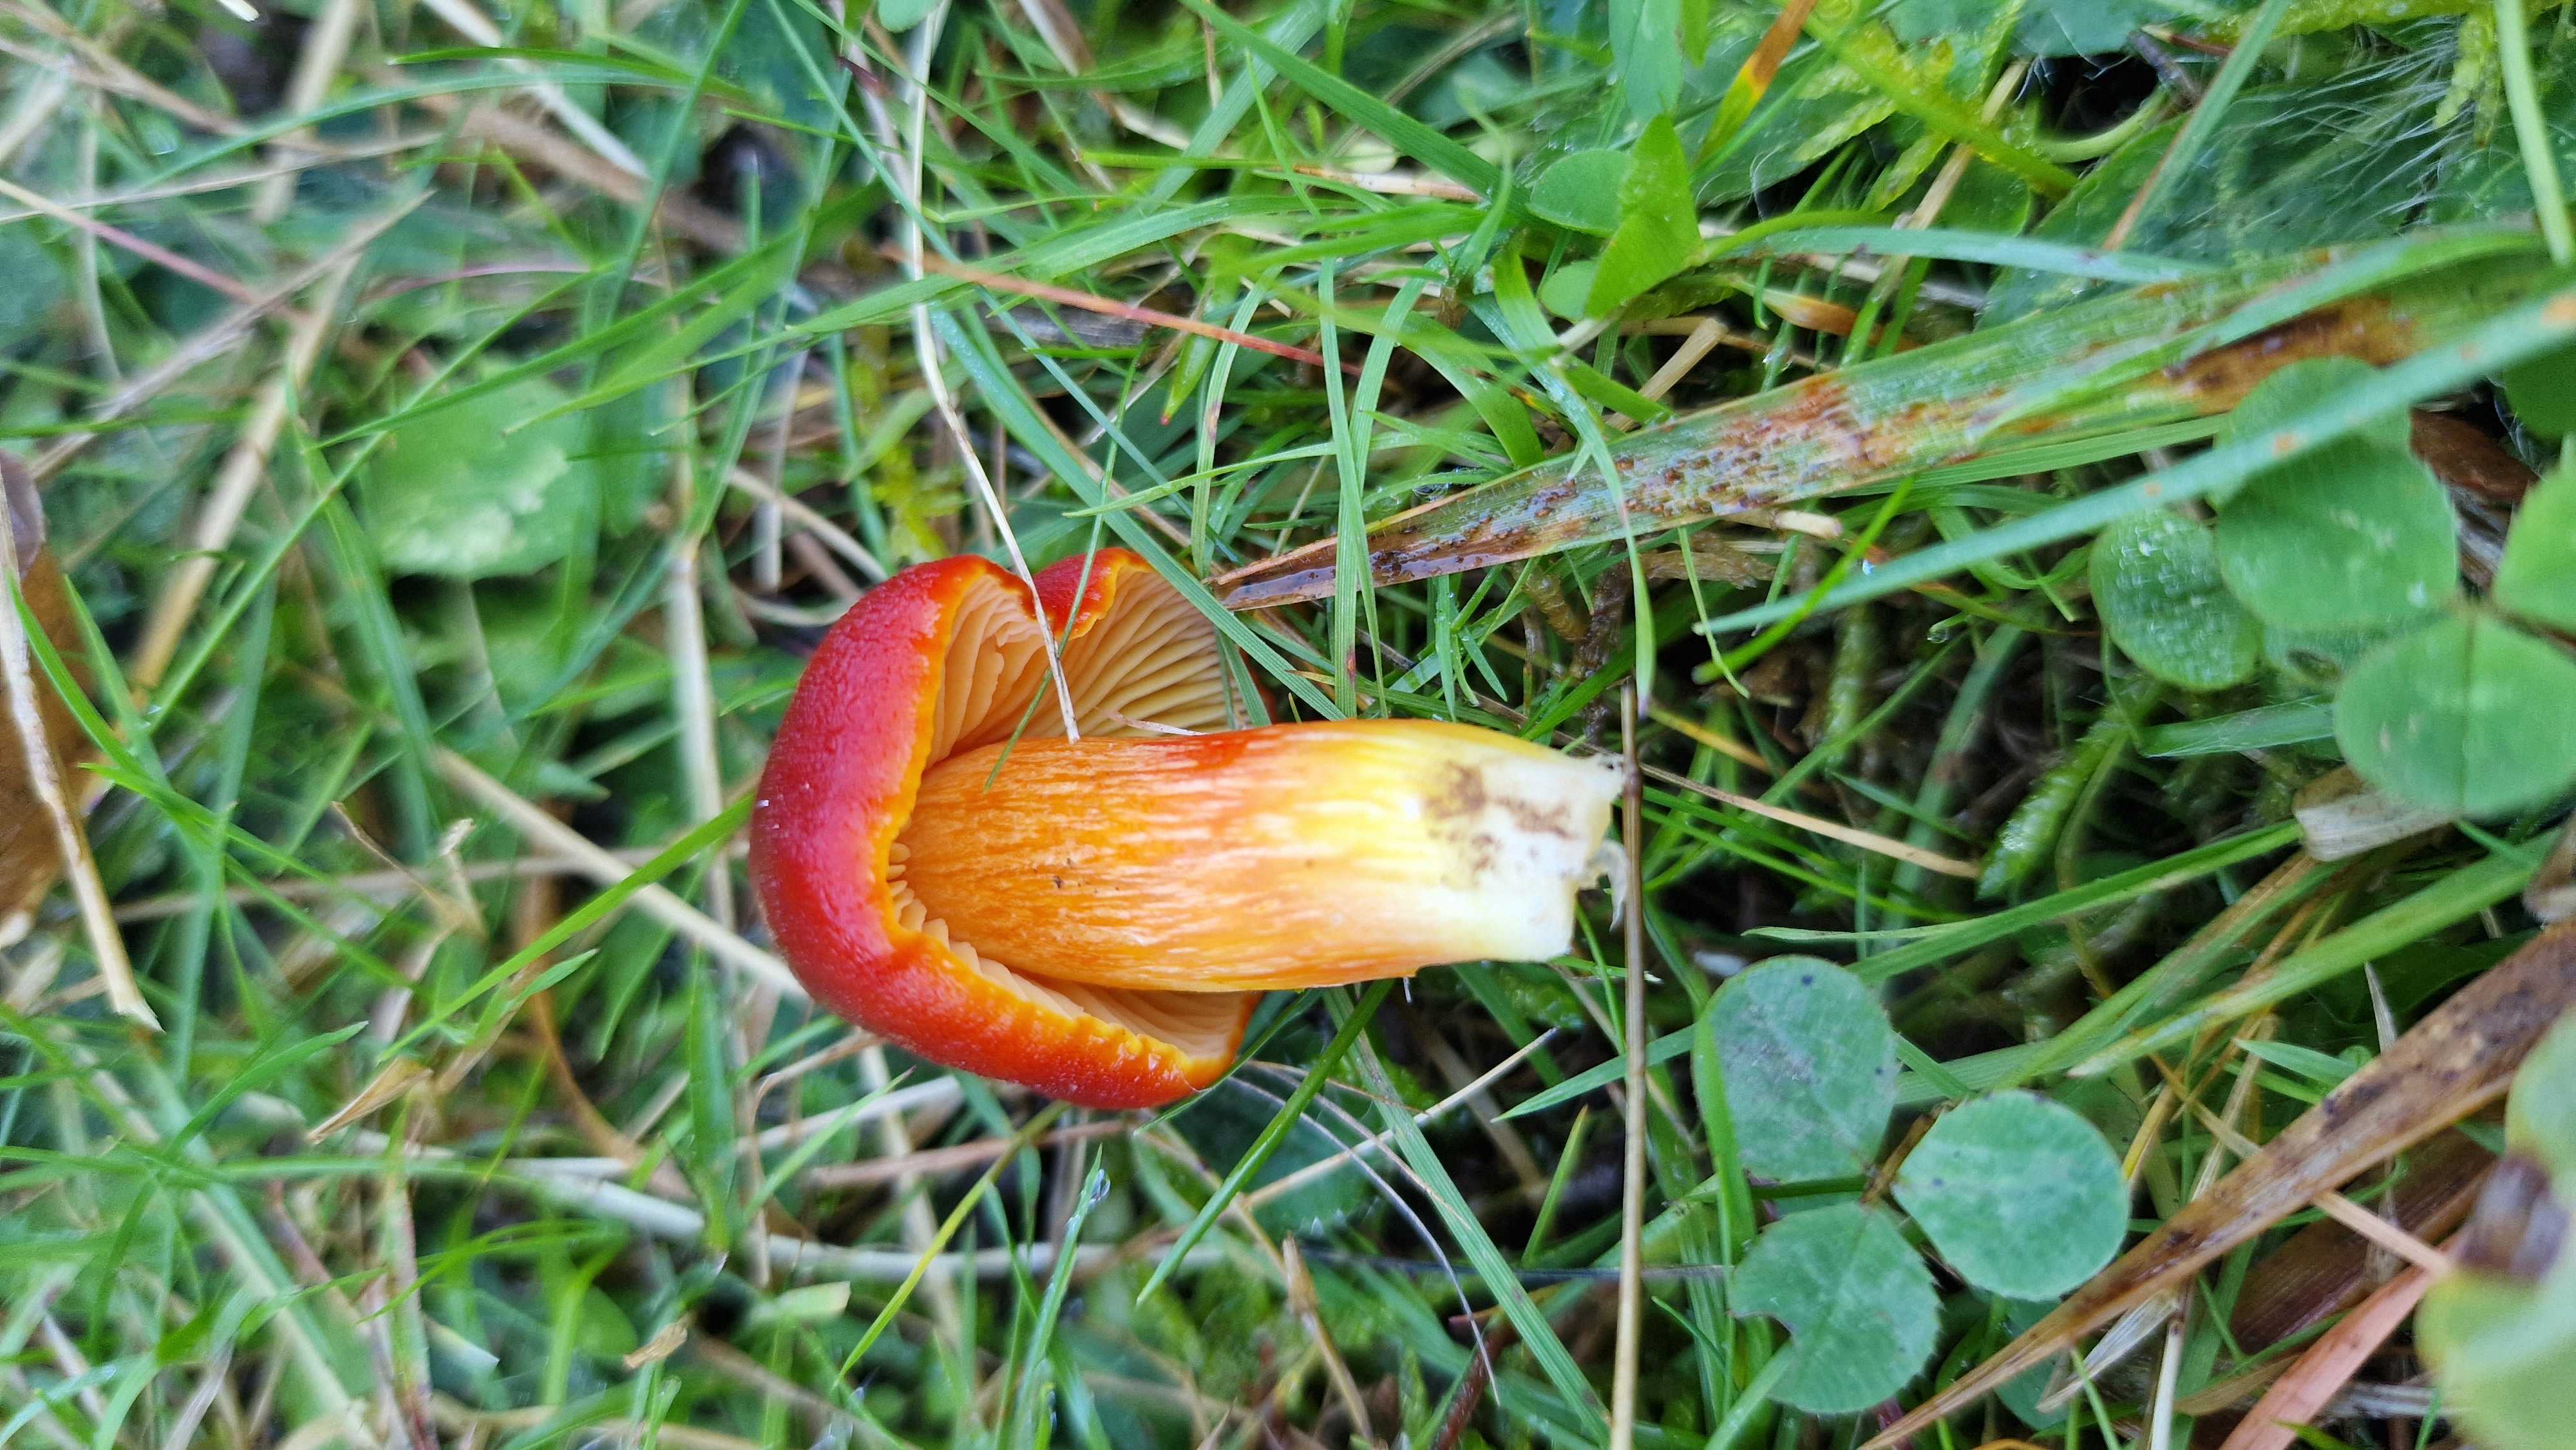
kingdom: Fungi
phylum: Basidiomycota
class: Agaricomycetes
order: Agaricales
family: Hygrophoraceae
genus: Hygrocybe
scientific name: Hygrocybe punicea
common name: skarlagen-vokshat
